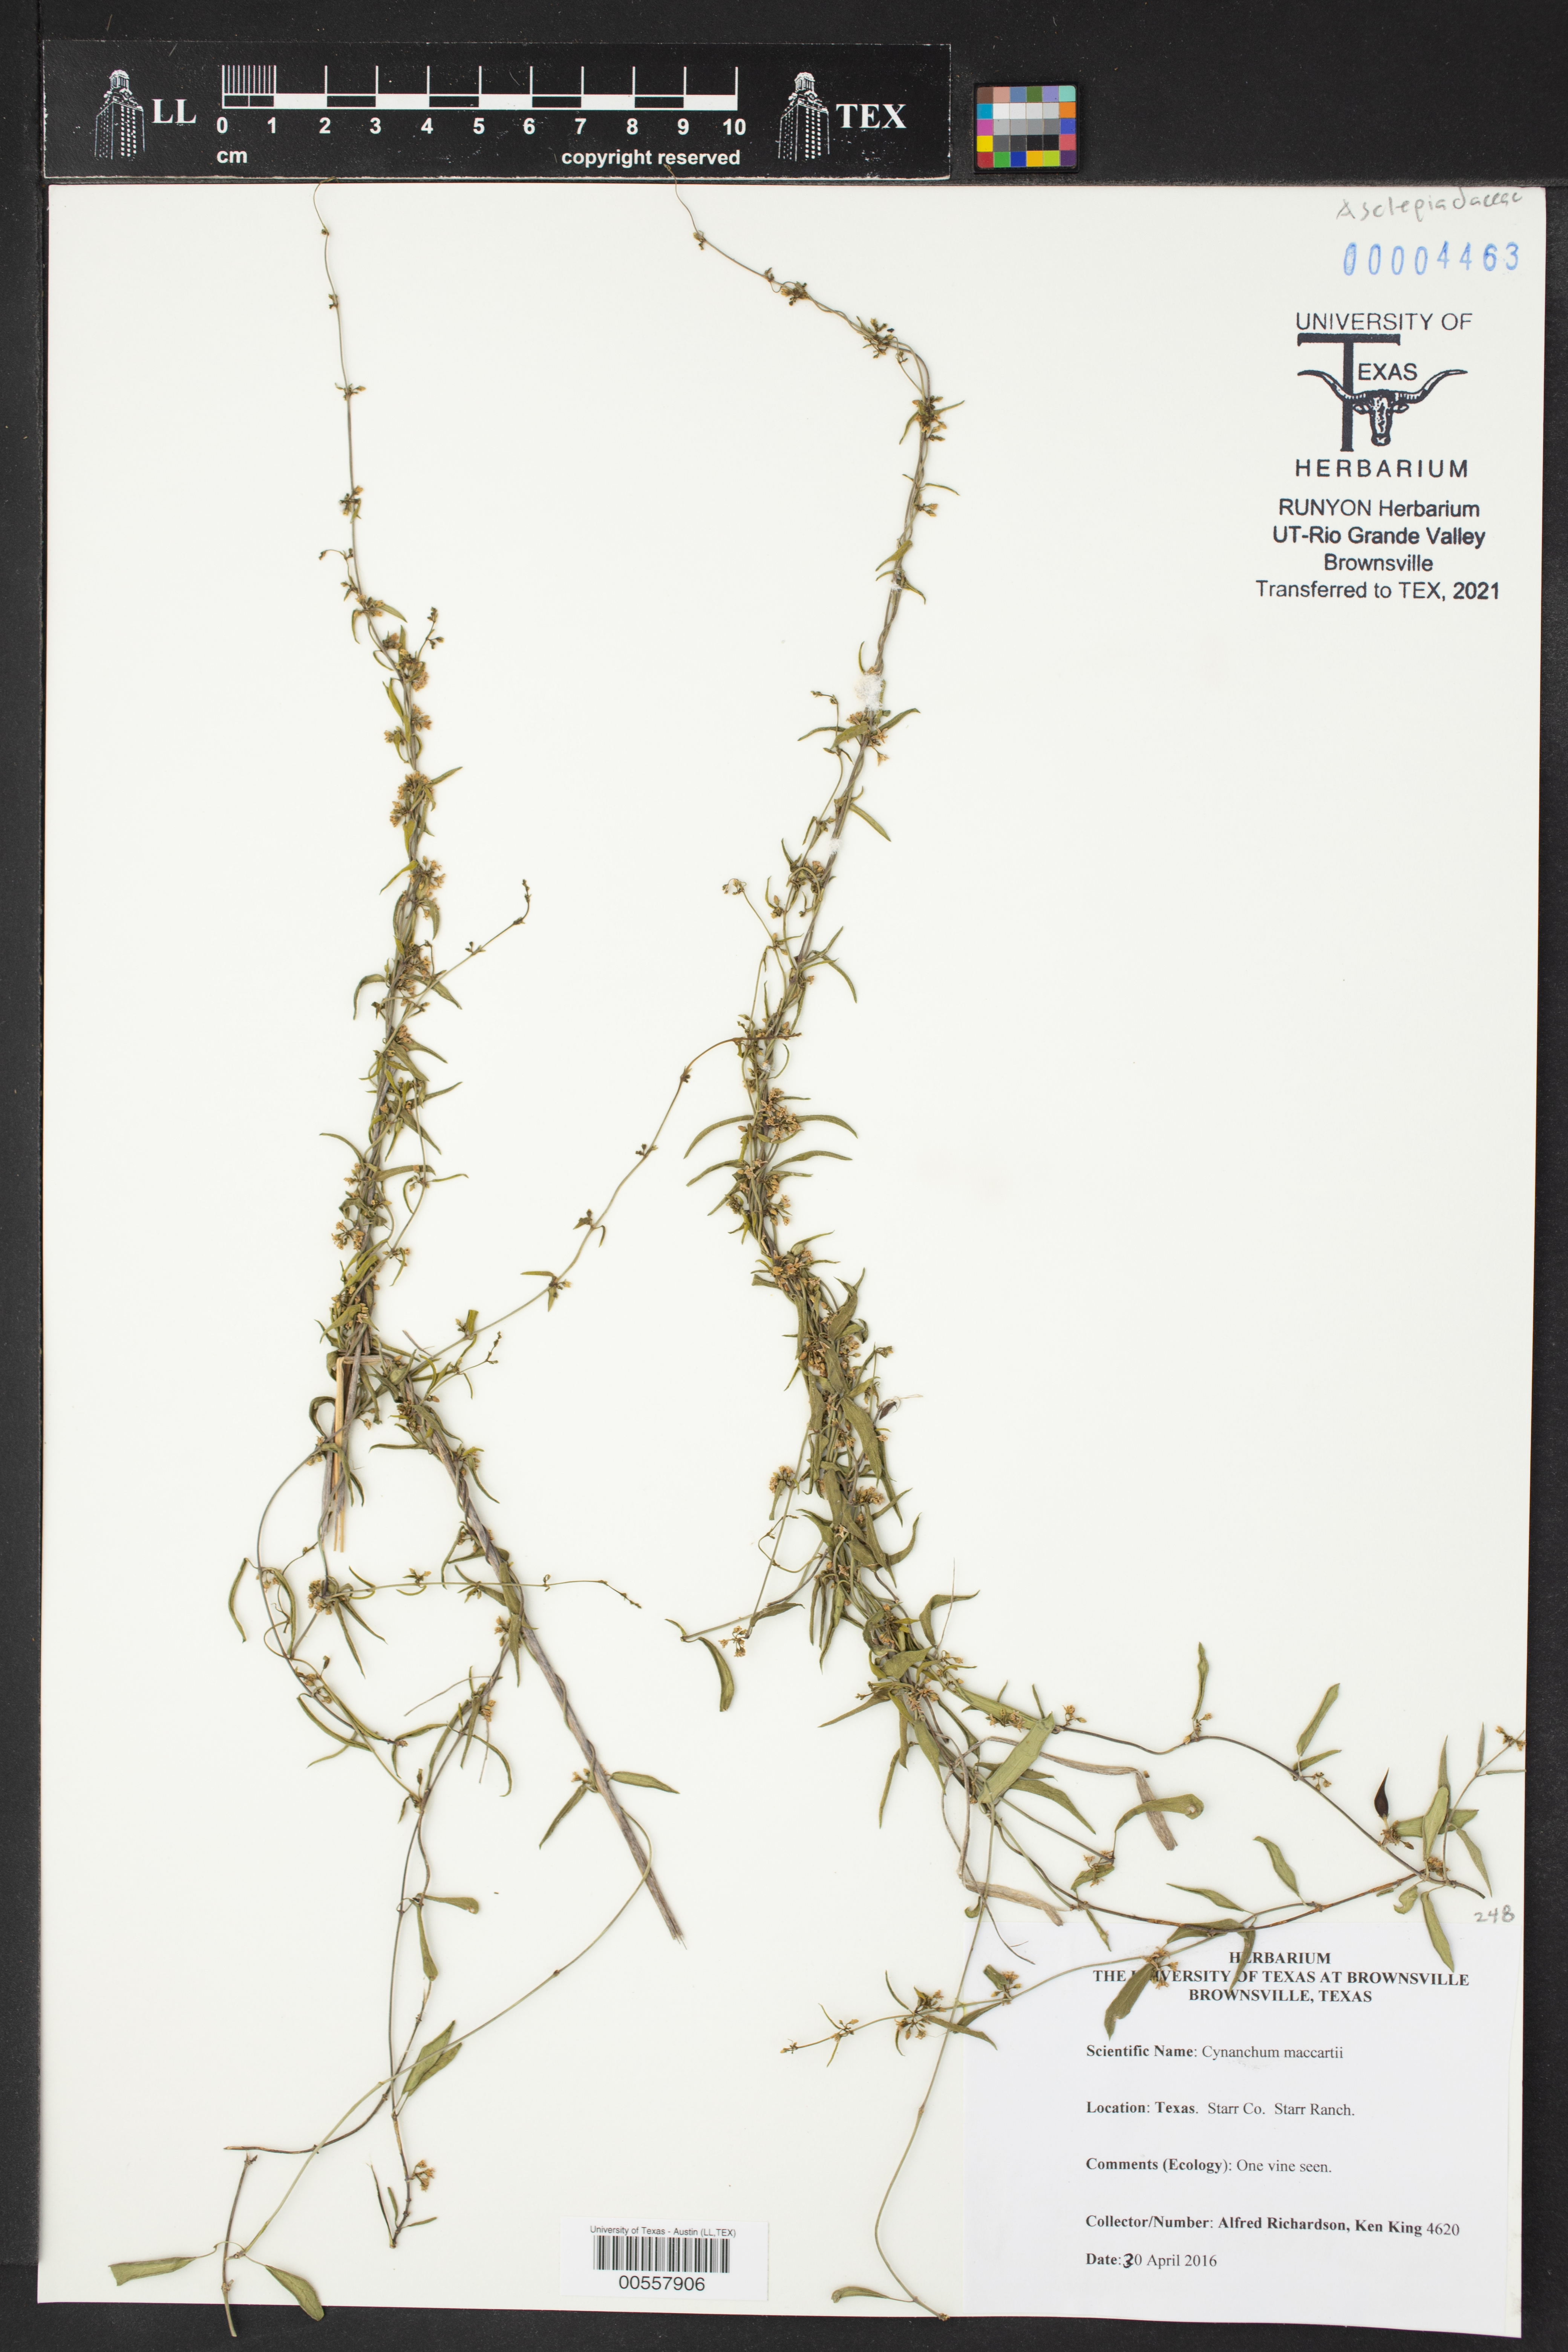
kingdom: Plantae
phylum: Tracheophyta
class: Magnoliopsida
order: Gentianales
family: Apocynaceae
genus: Metastelma
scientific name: Metastelma palmeri
